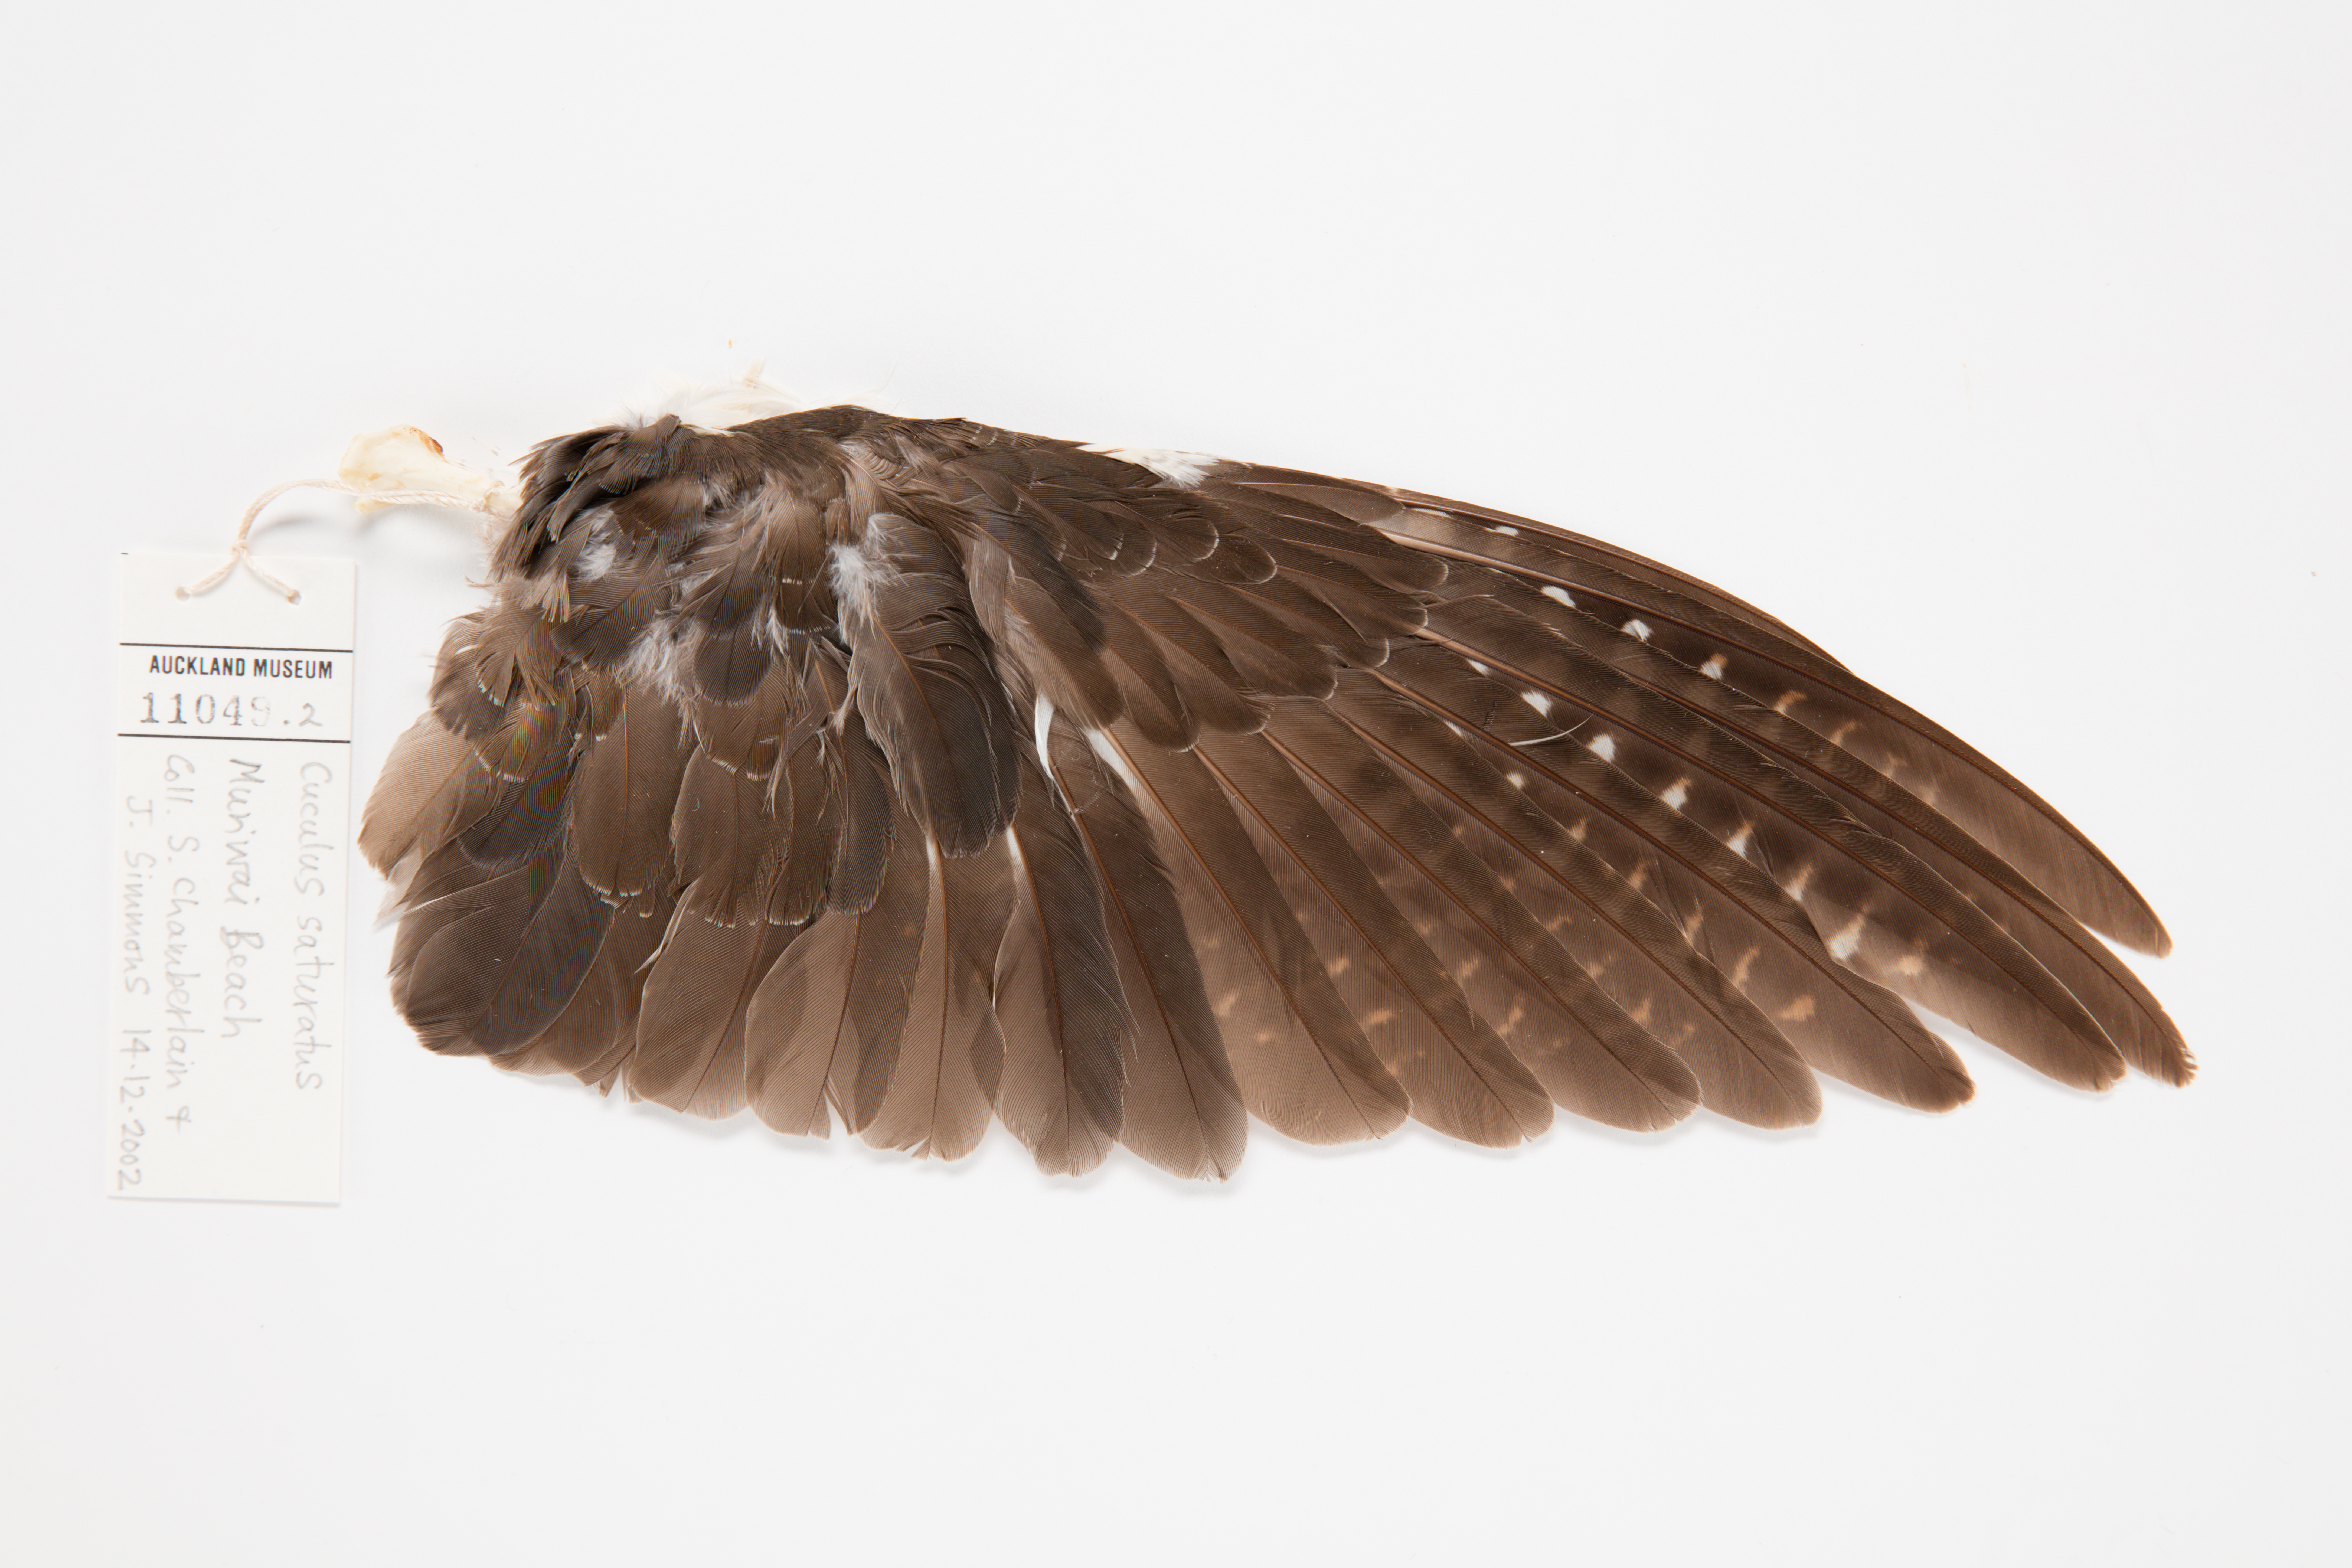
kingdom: Animalia
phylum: Chordata
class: Aves
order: Cuculiformes
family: Cuculidae
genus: Cuculus
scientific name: Cuculus optatus
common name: Oriental cuckoo
